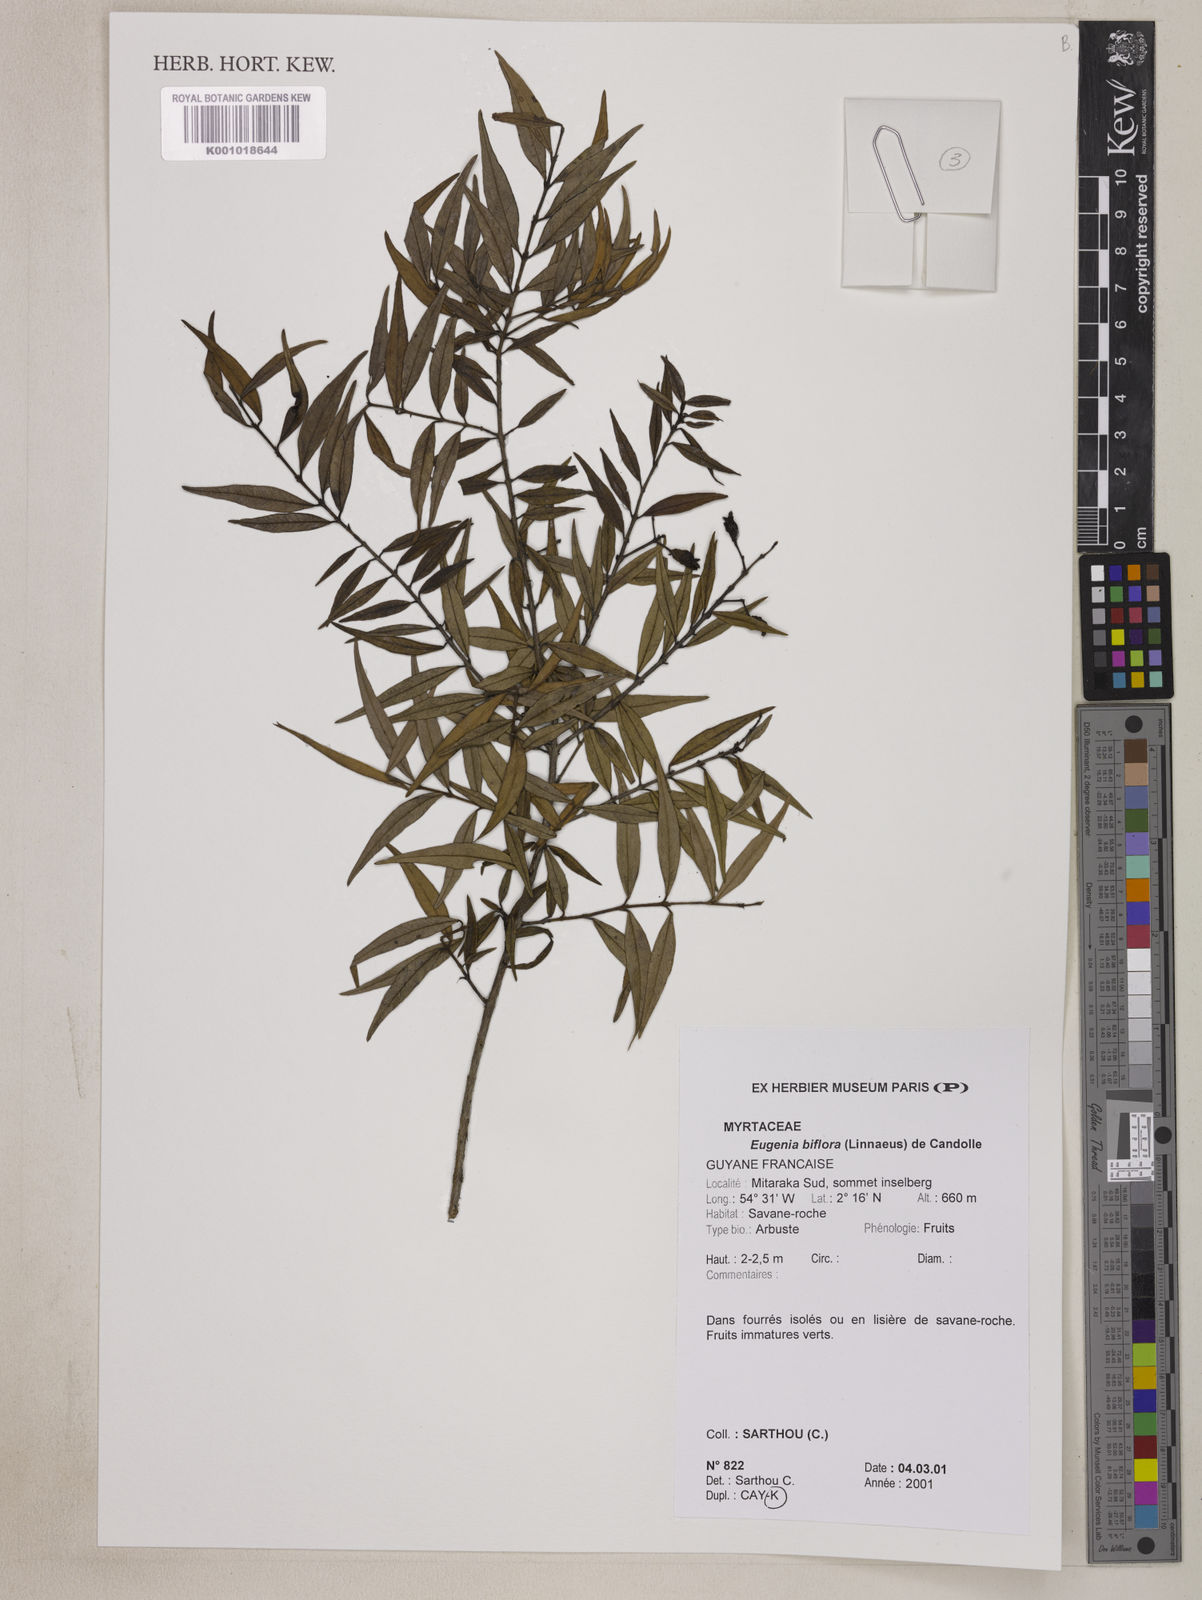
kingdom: Plantae
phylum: Tracheophyta
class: Magnoliopsida
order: Myrtales
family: Myrtaceae
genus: Eugenia
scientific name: Eugenia biflora
